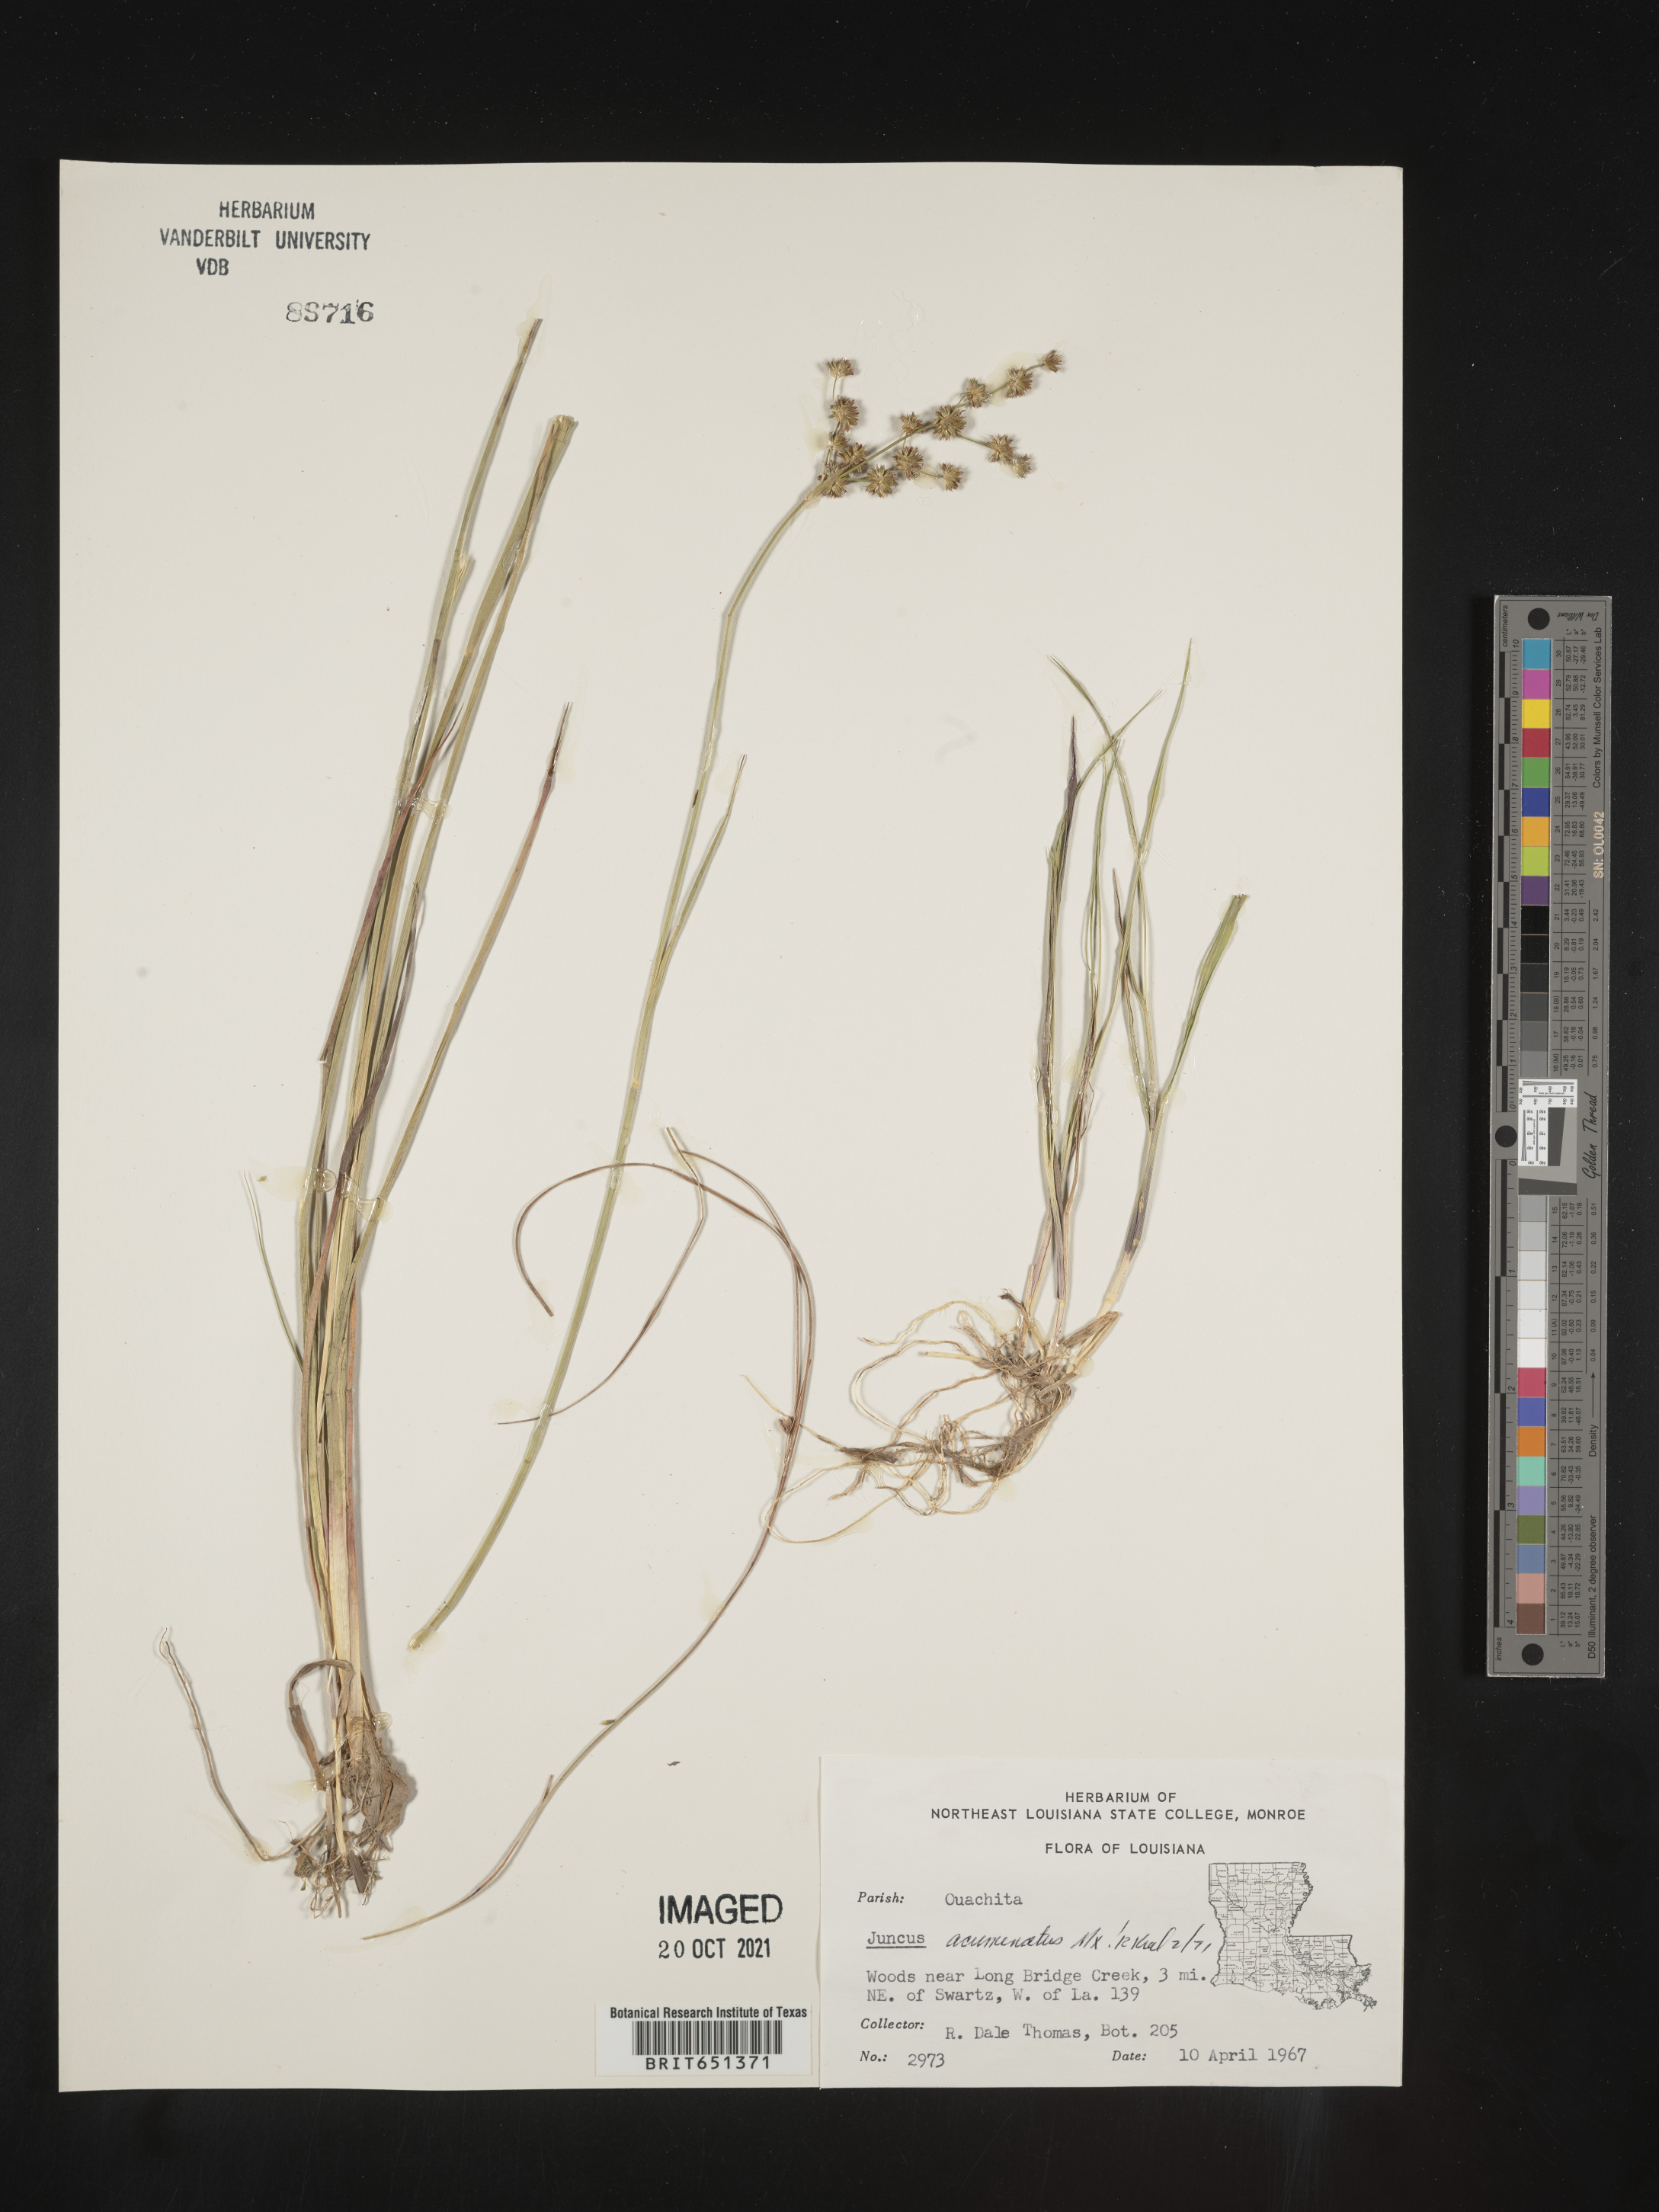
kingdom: Plantae
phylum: Tracheophyta
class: Liliopsida
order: Poales
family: Juncaceae
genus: Juncus
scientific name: Juncus acuminatus
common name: Knotty-leaved rush
